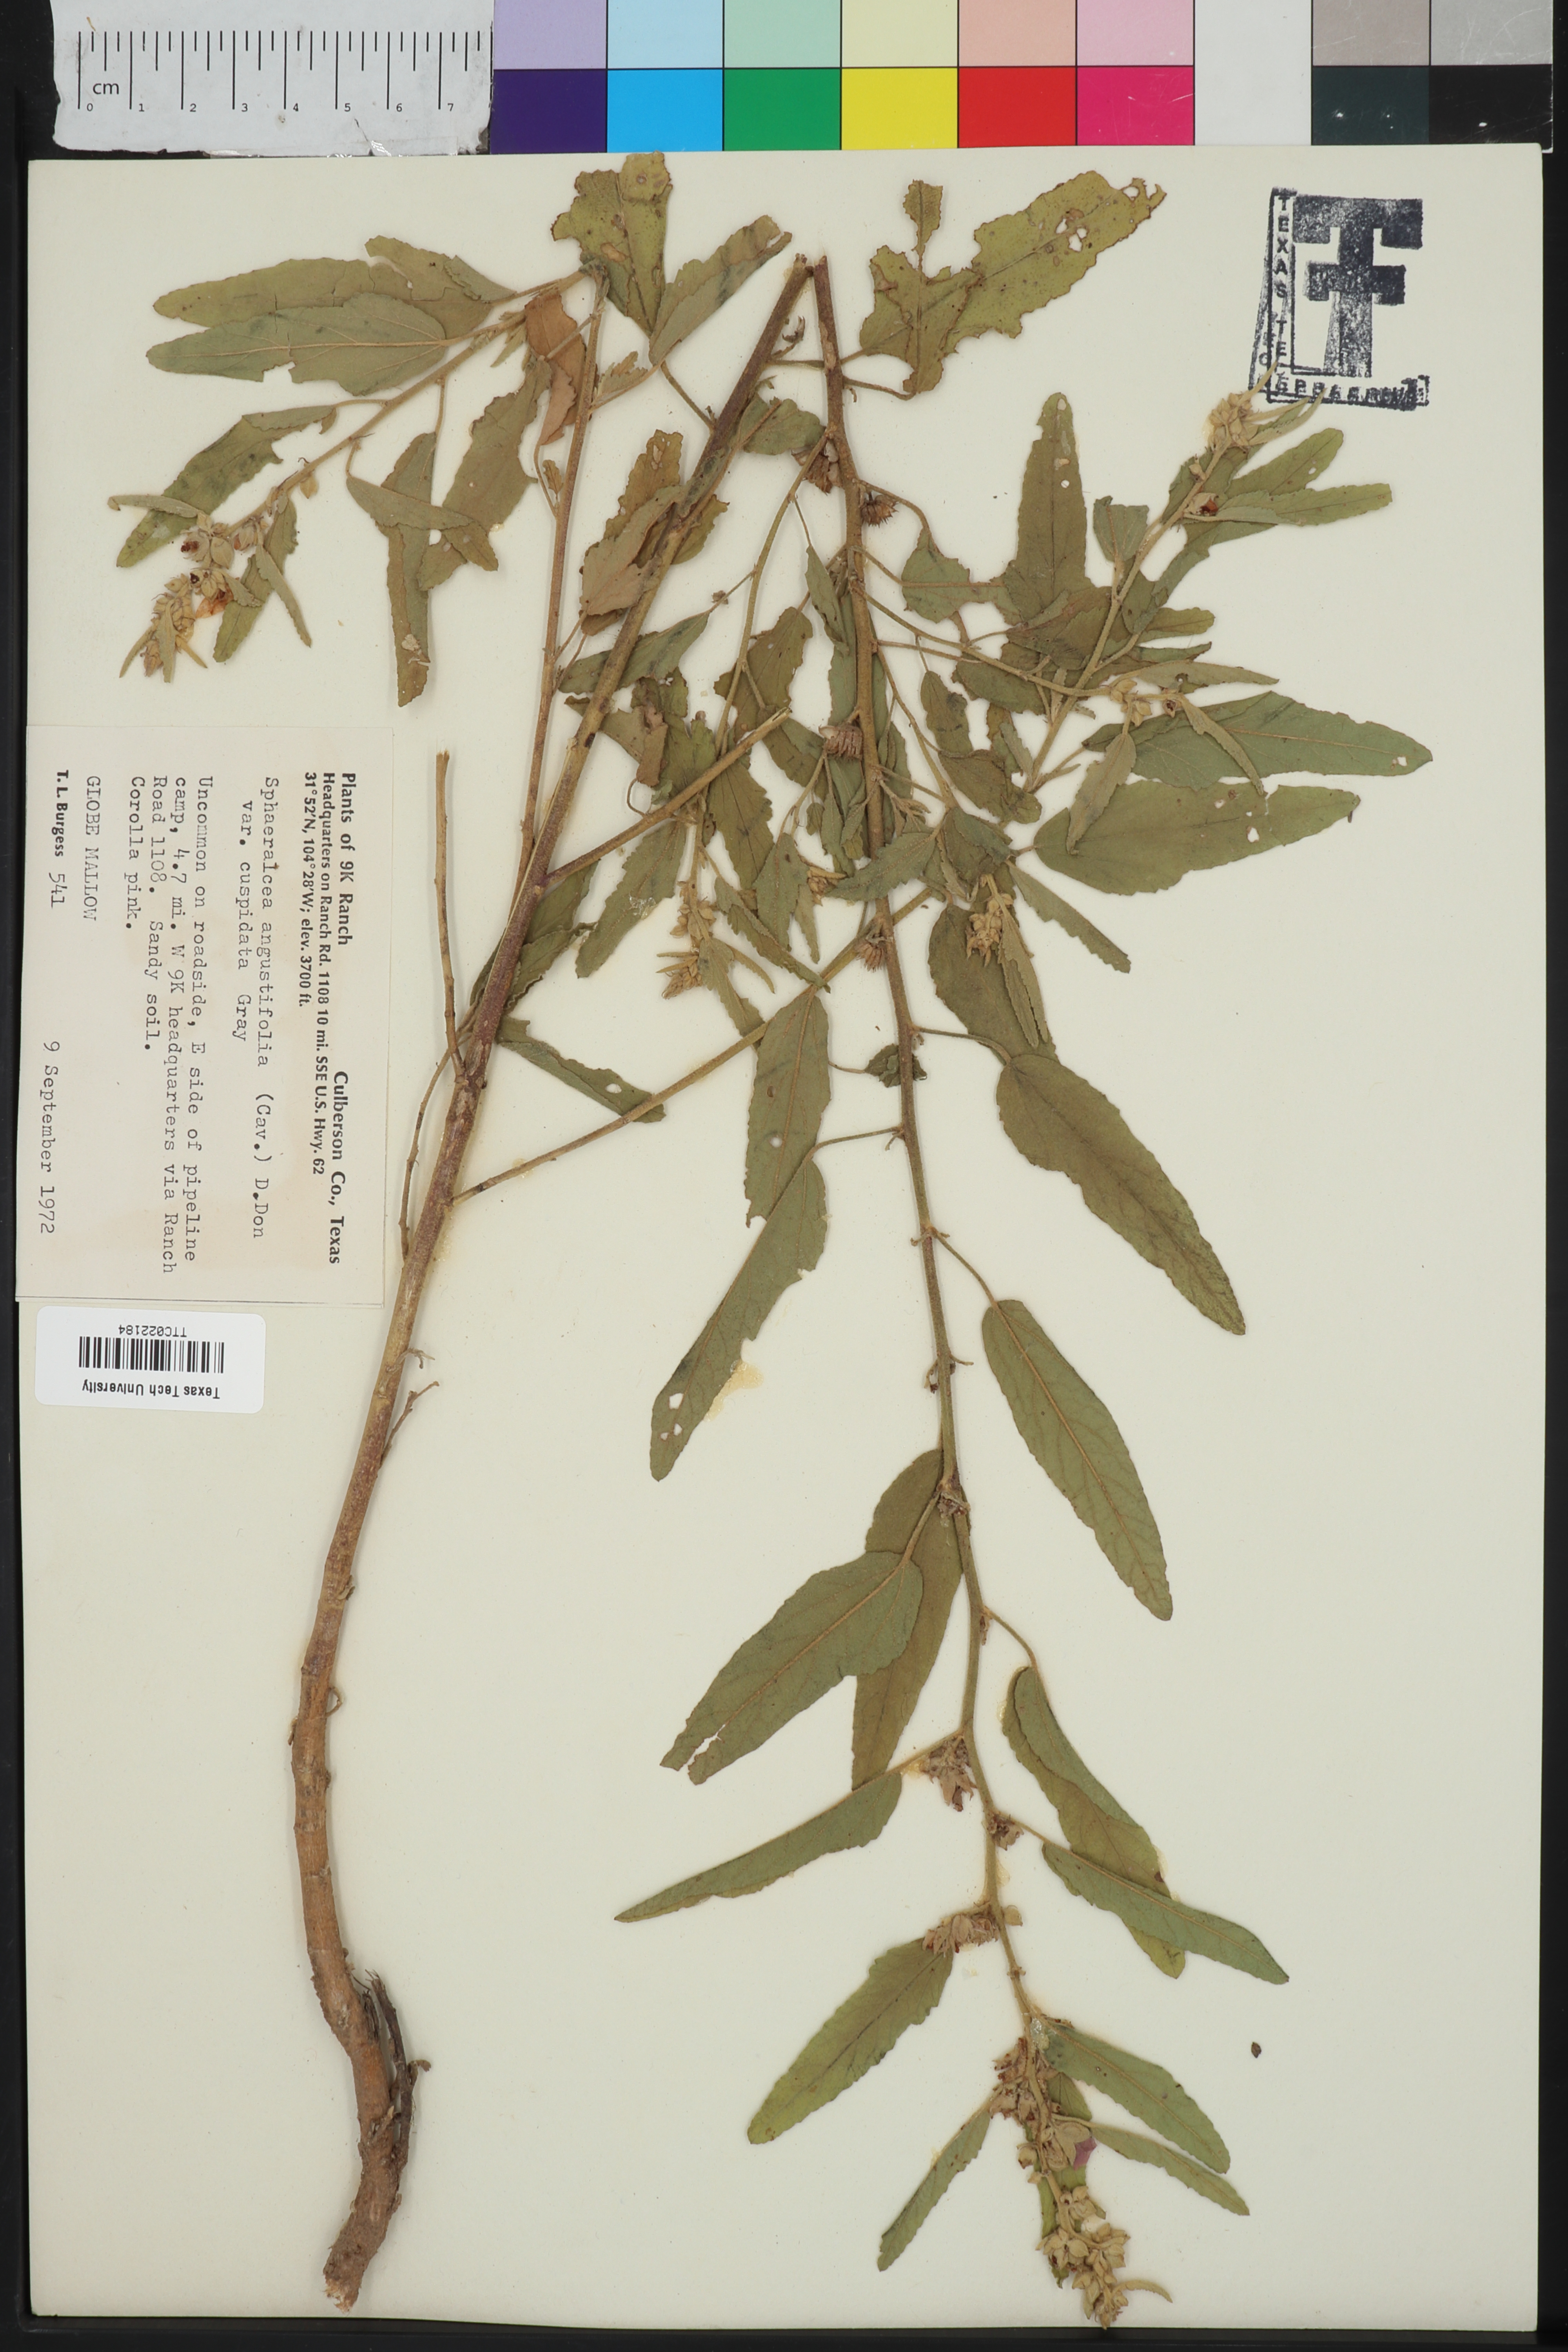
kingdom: Plantae
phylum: Tracheophyta
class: Magnoliopsida
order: Malvales
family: Malvaceae
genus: Sphaeralcea
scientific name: Sphaeralcea angustifolia
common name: Copper globe-mallow
